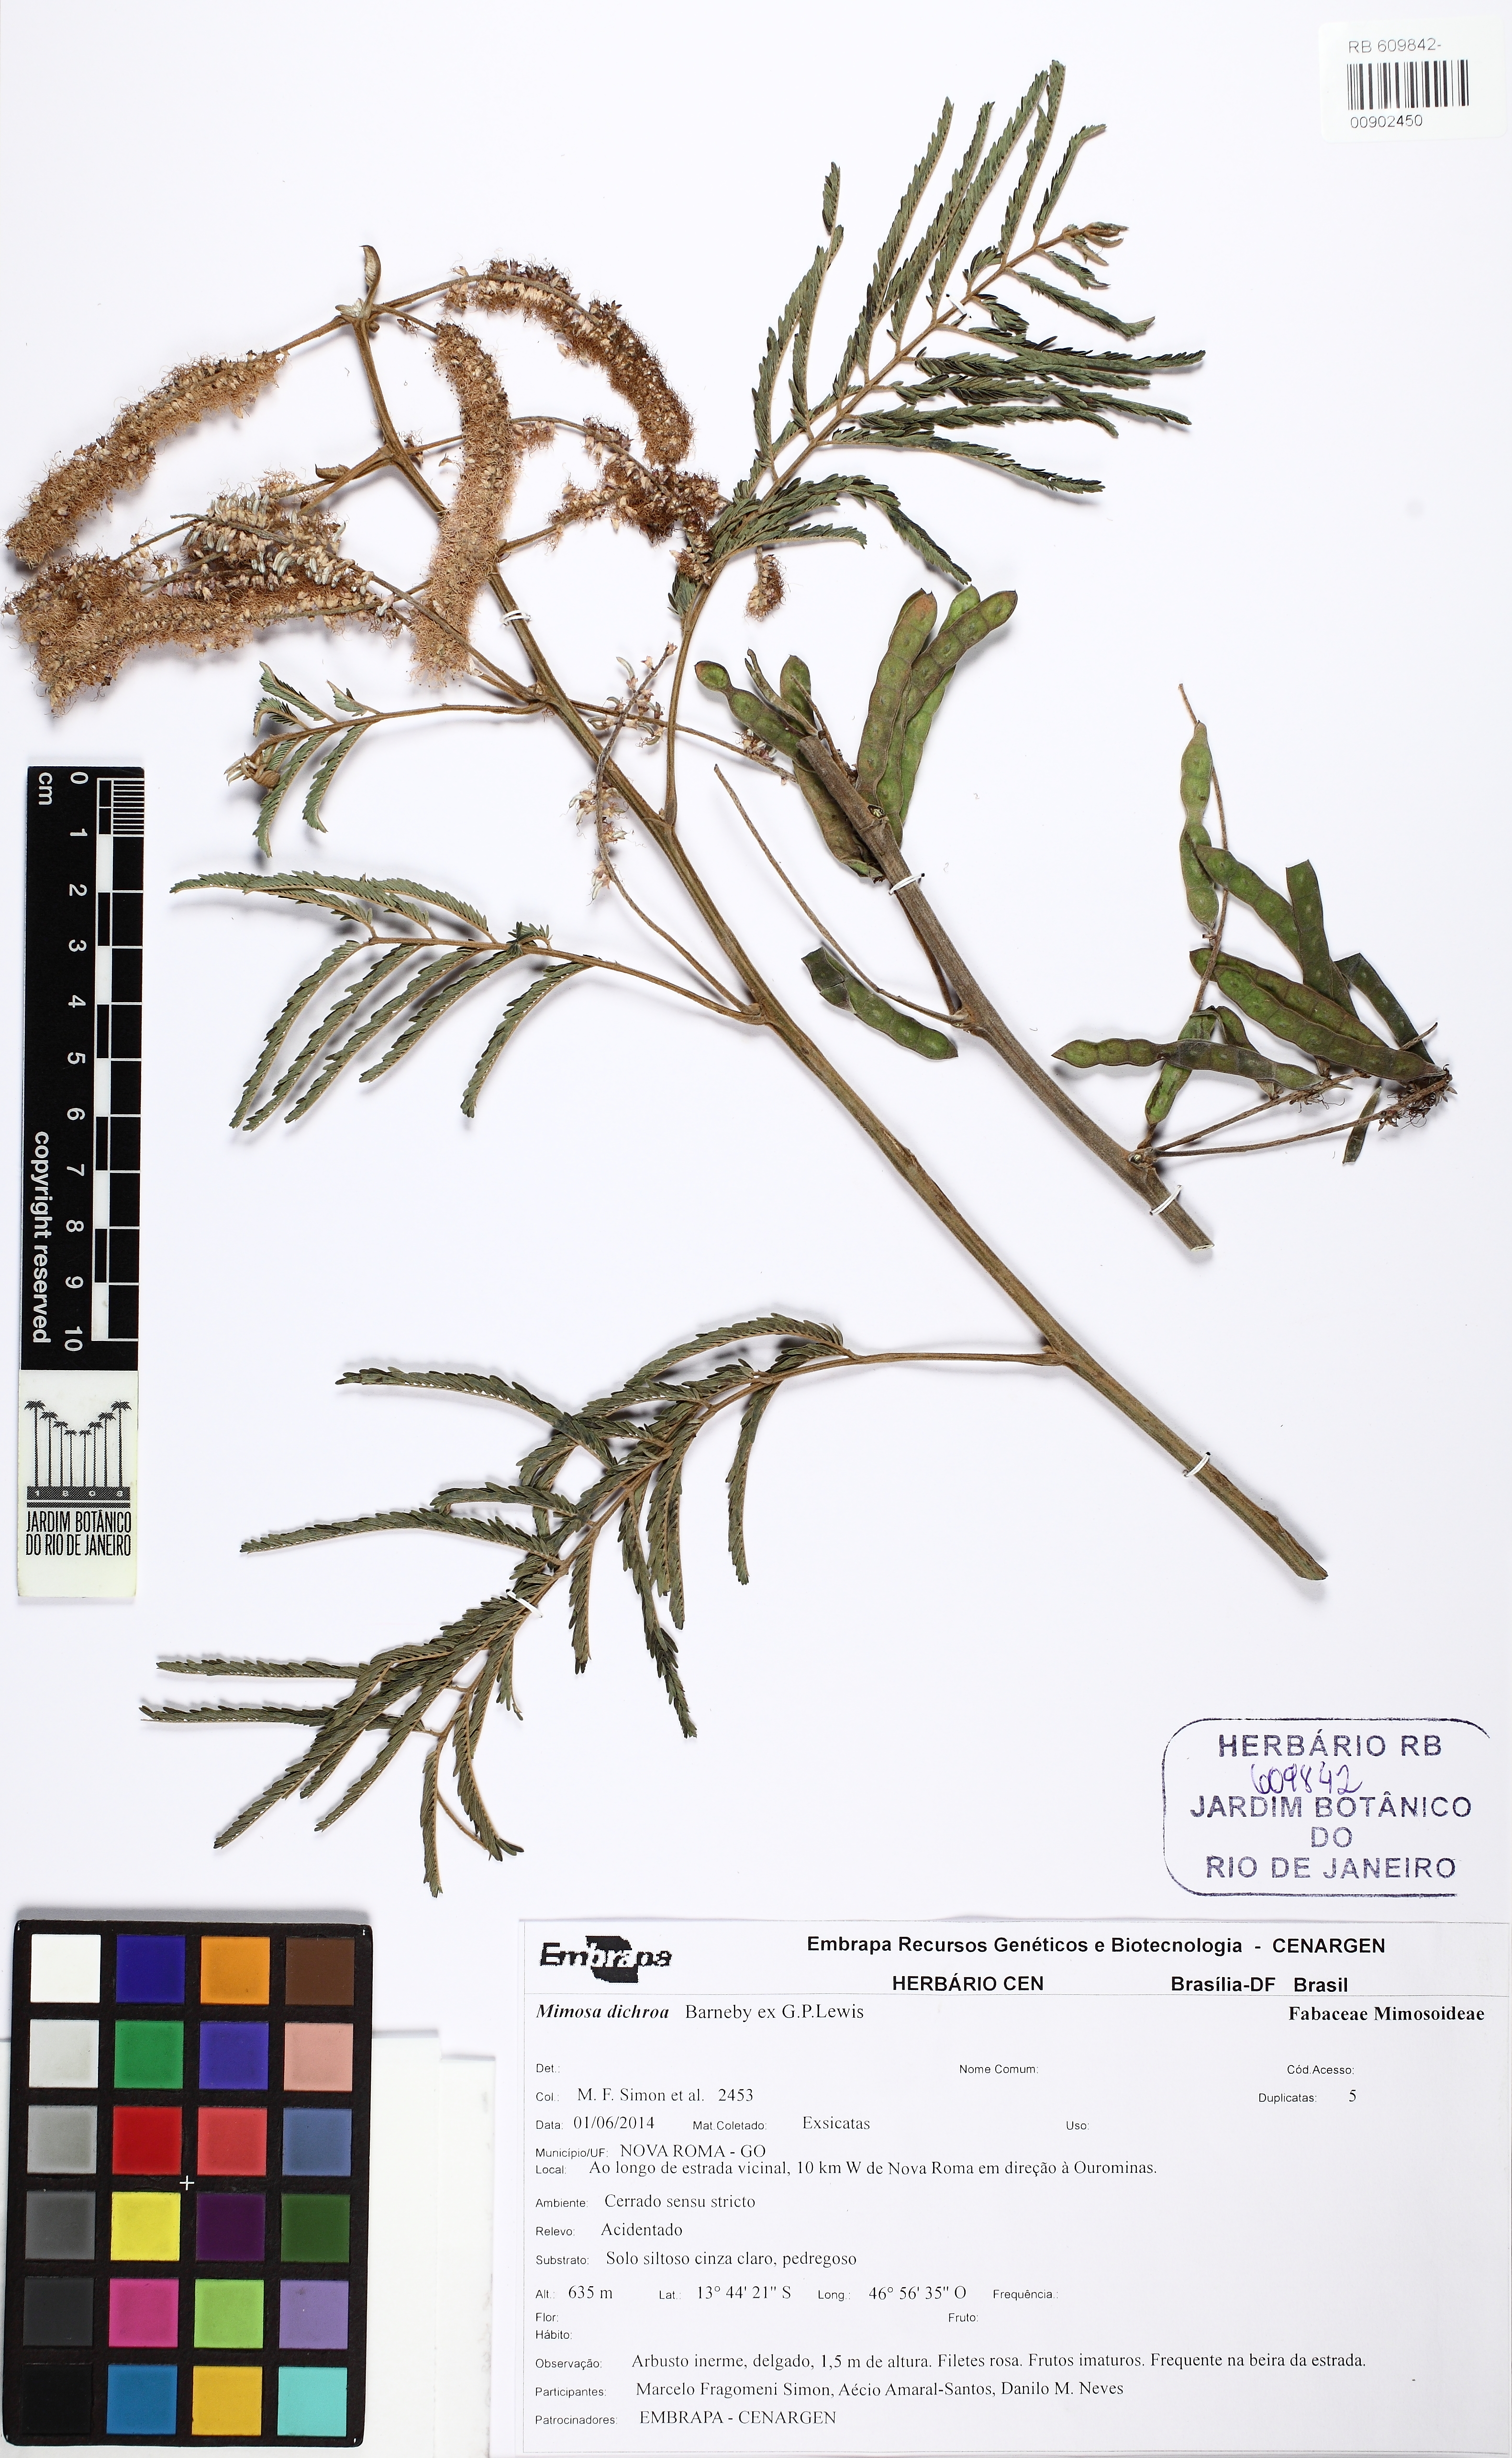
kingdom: Plantae
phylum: Tracheophyta
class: Magnoliopsida
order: Fabales
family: Fabaceae
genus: Mimosa
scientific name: Mimosa dichroa
